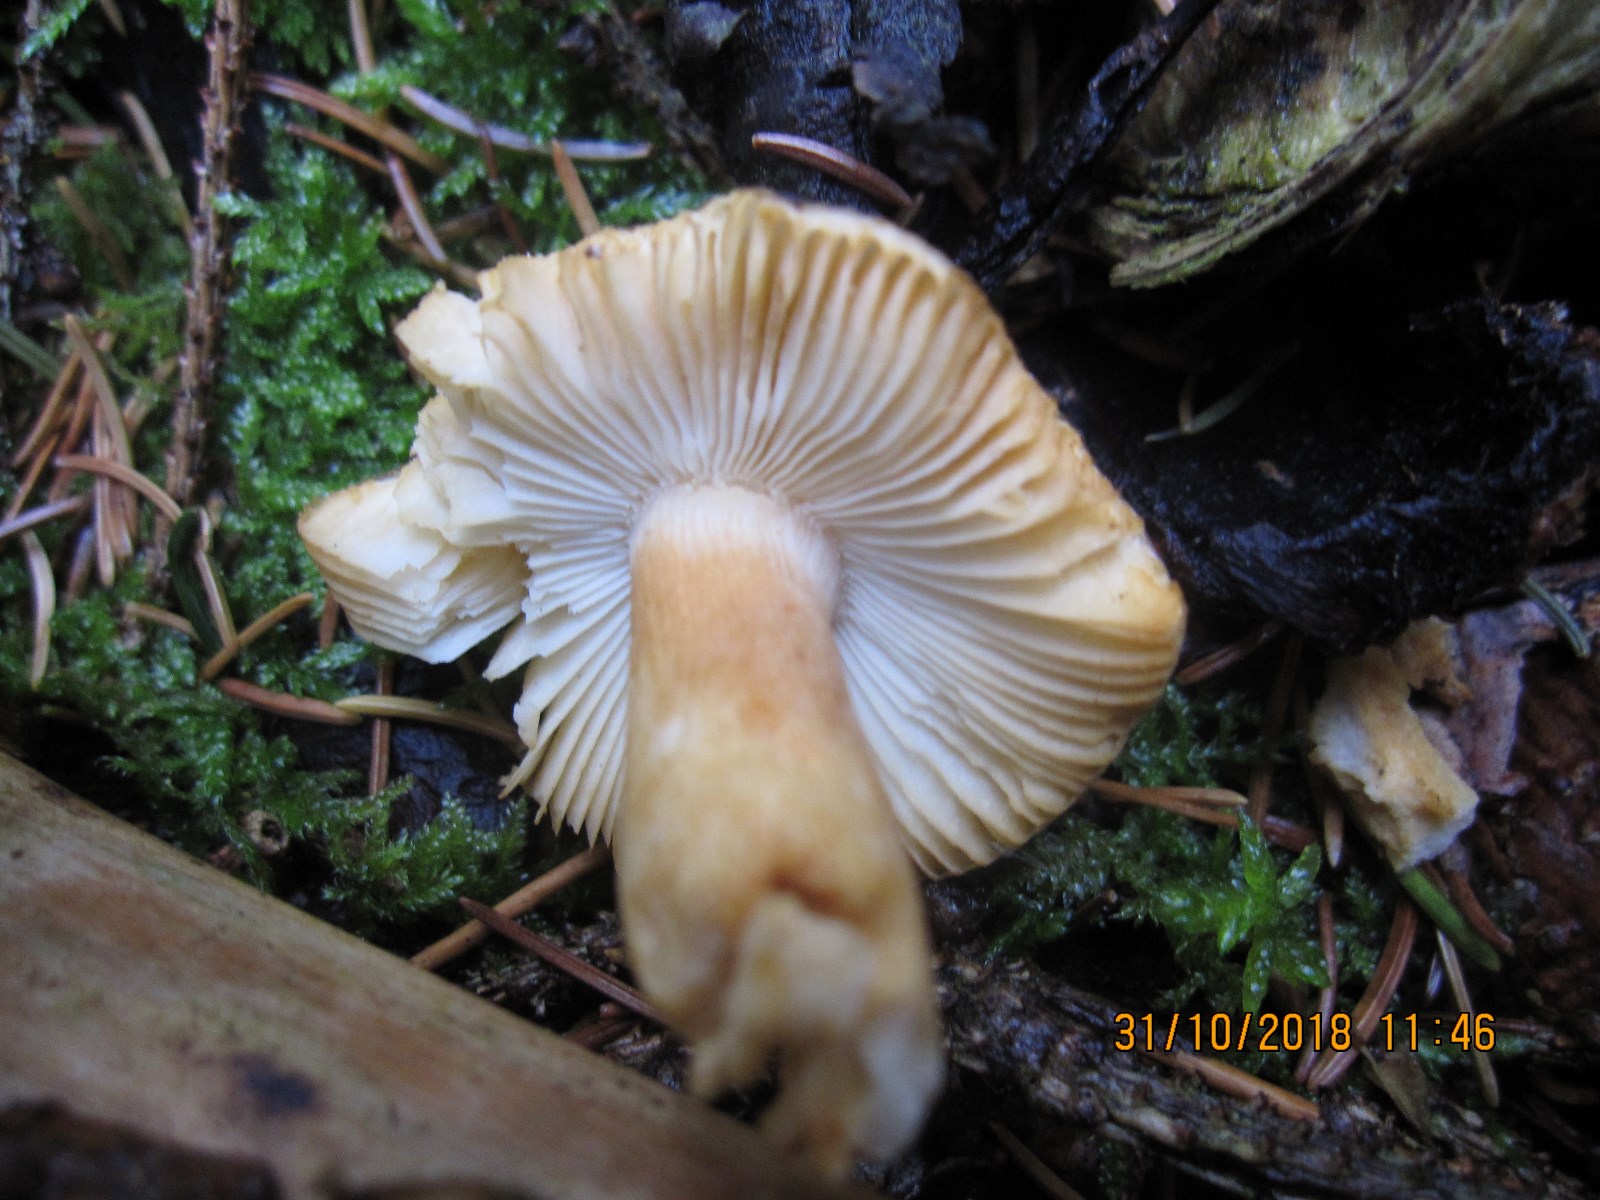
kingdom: Fungi
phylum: Basidiomycota
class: Agaricomycetes
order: Russulales
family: Russulaceae
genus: Russula
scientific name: Russula puellaris
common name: gulstokket skørhat
